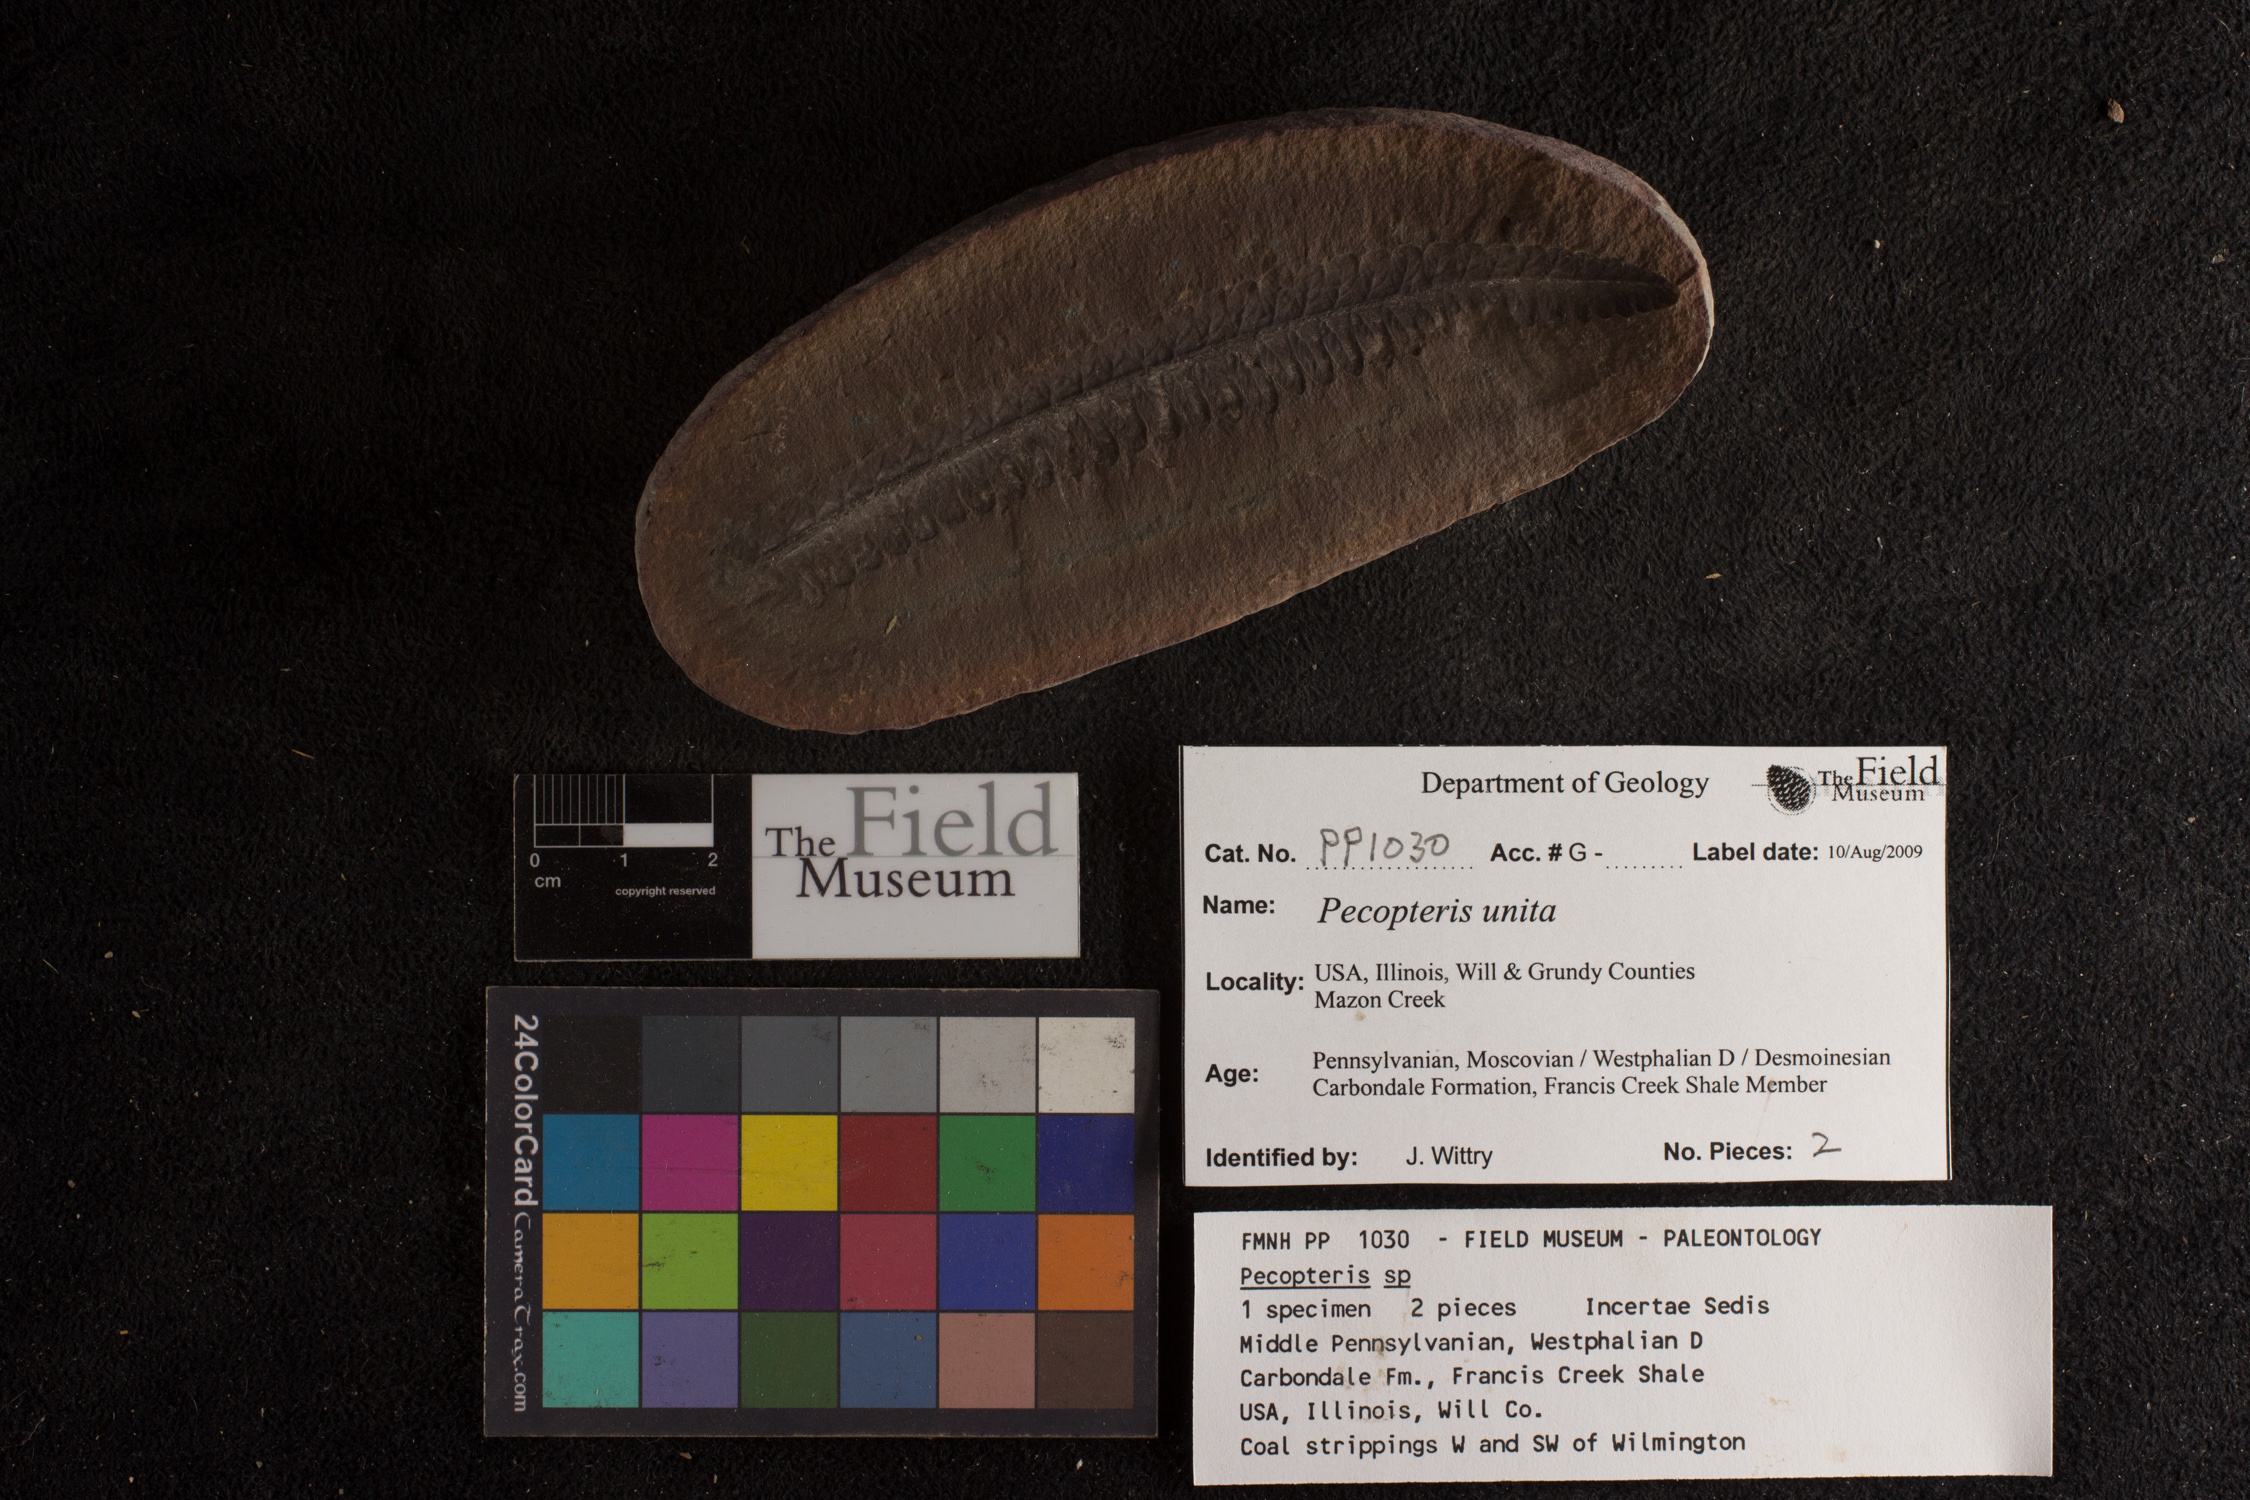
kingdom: Plantae
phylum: Tracheophyta
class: Polypodiopsida
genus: Diplazites
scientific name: Diplazites
